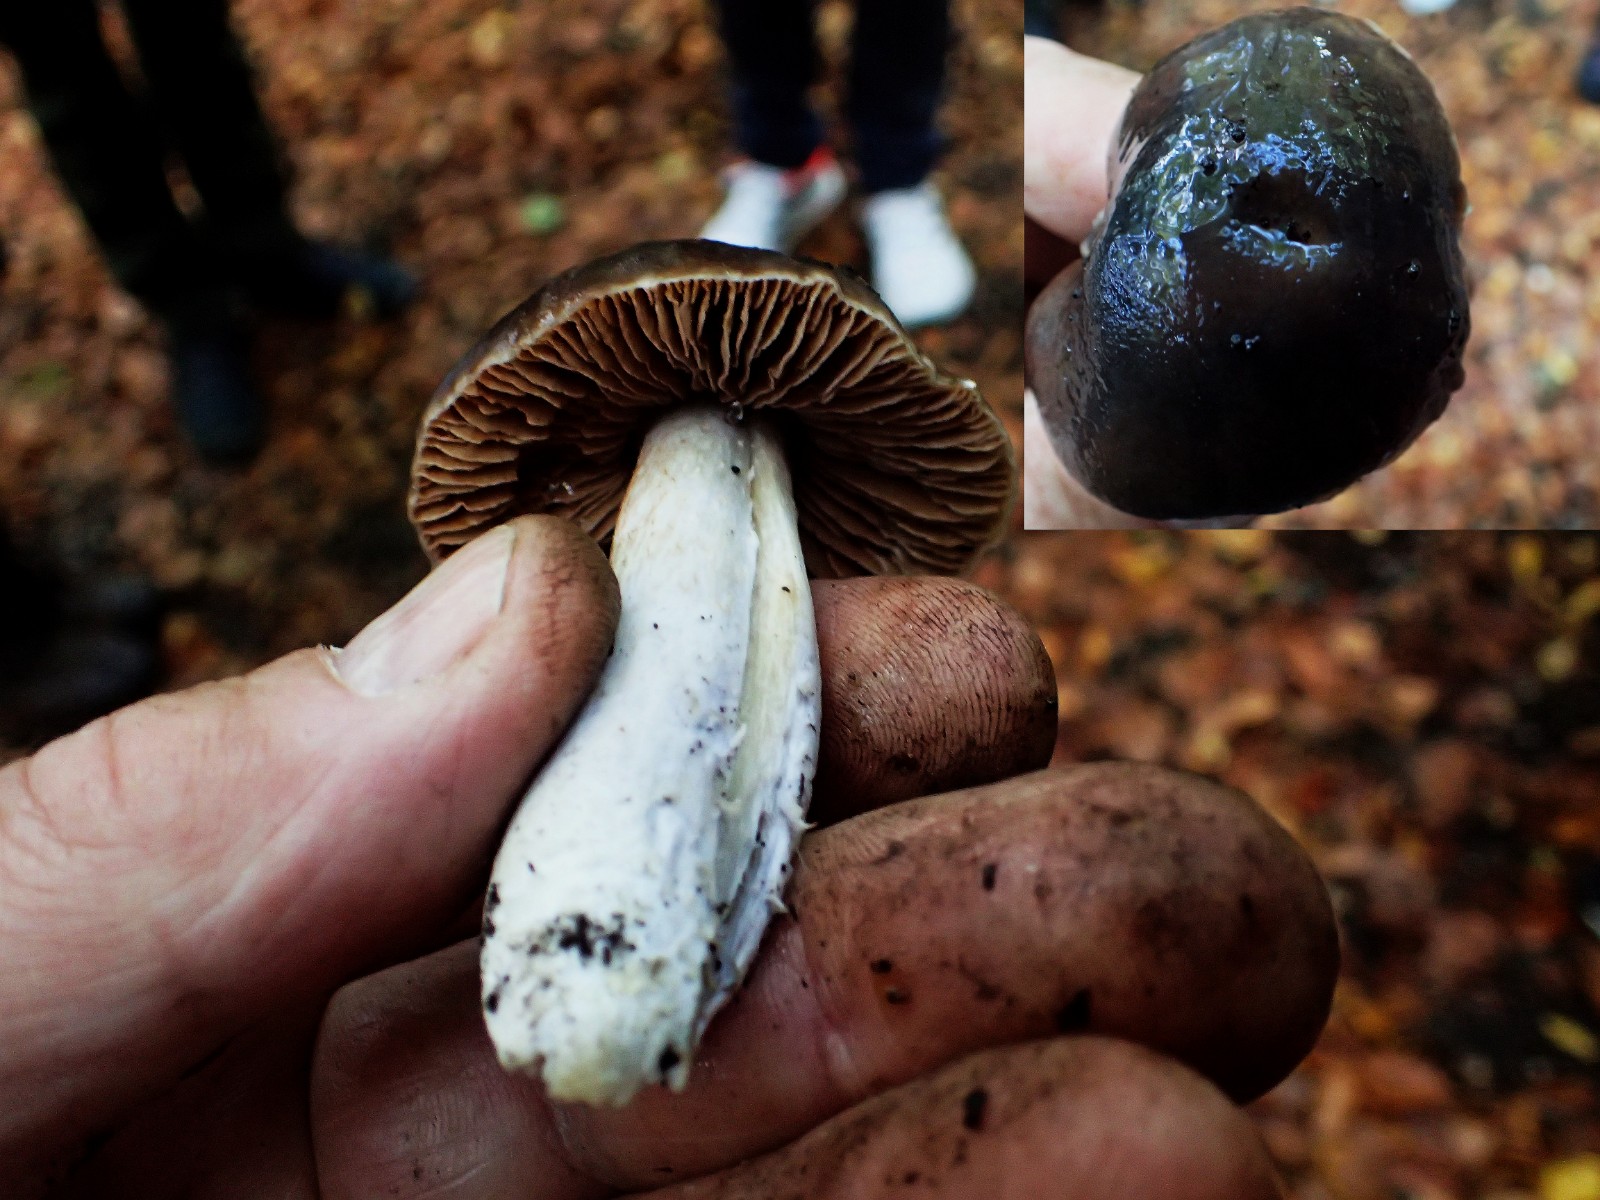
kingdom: Fungi
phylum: Basidiomycota
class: Agaricomycetes
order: Agaricales
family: Cortinariaceae
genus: Cortinarius
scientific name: Cortinarius
